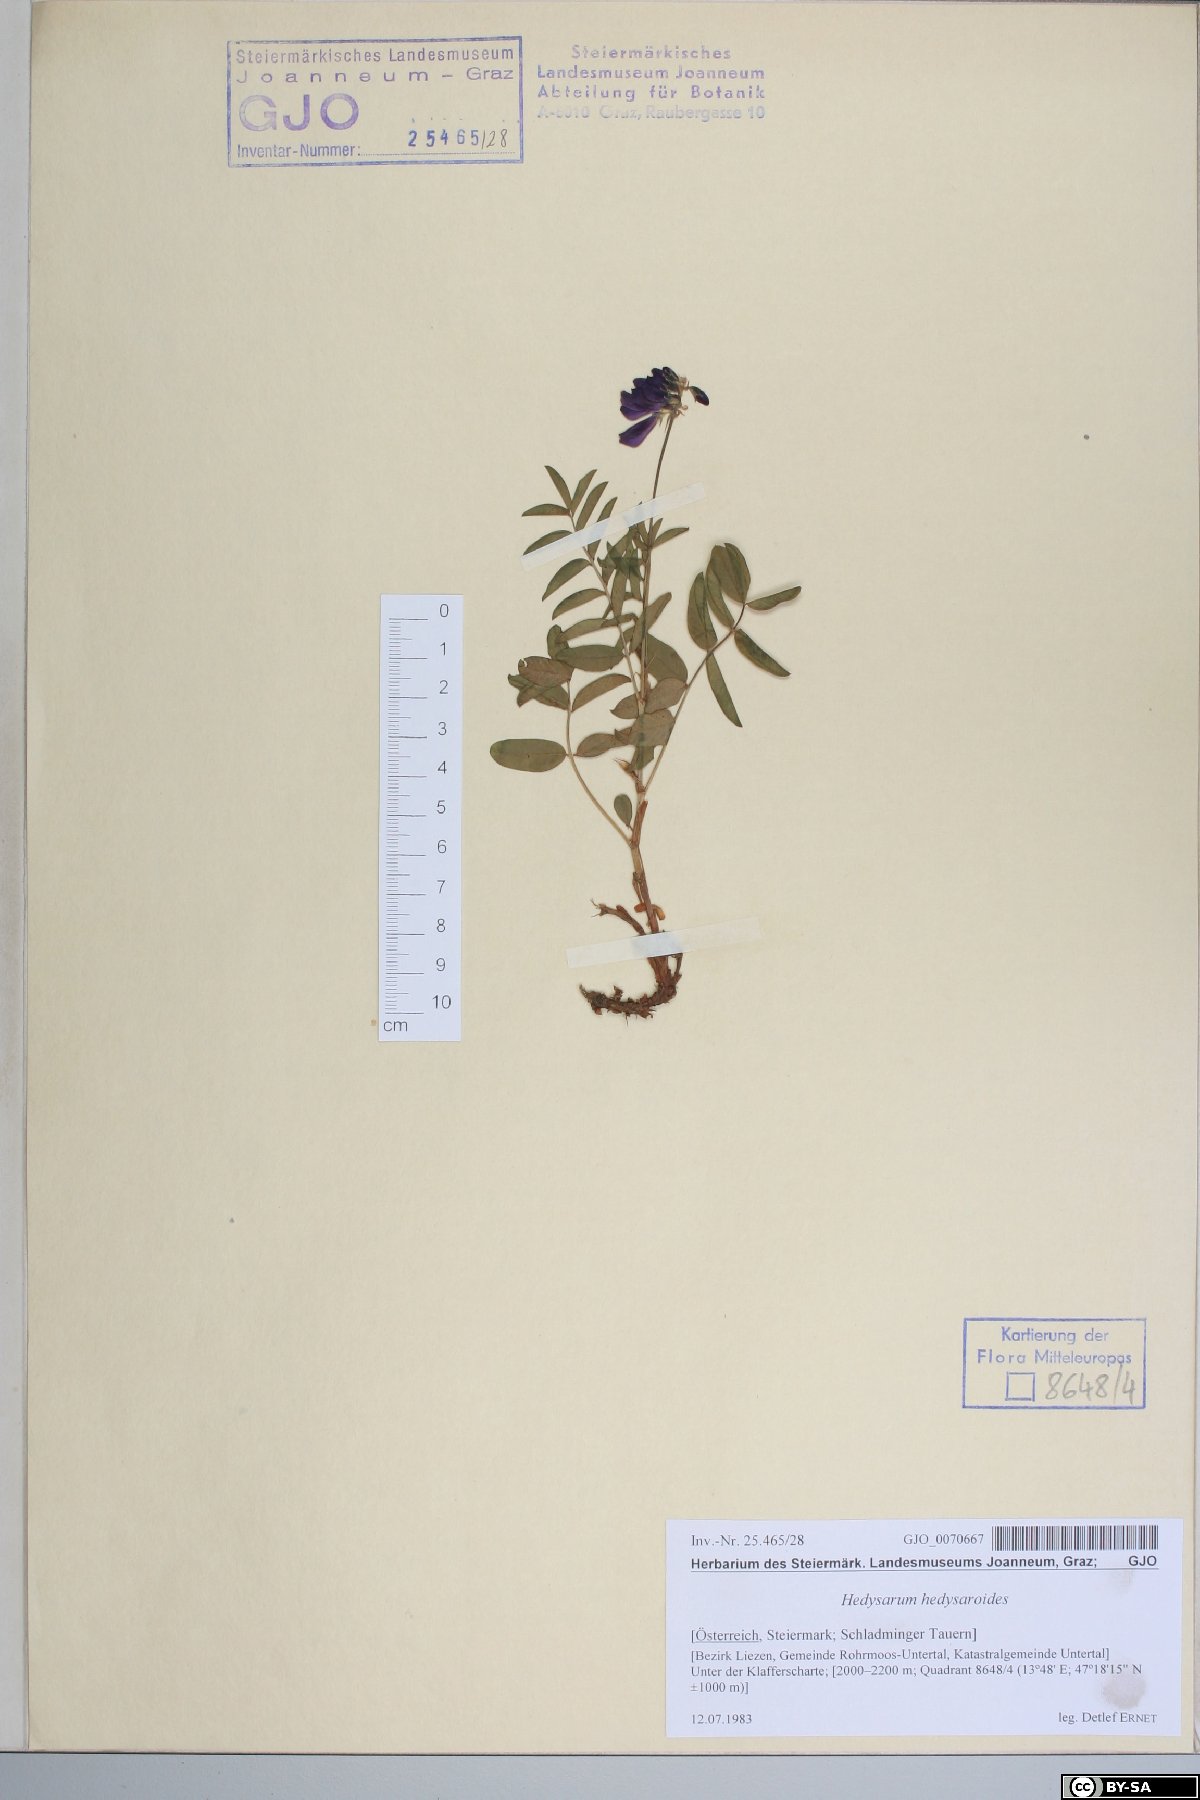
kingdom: Plantae
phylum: Tracheophyta
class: Magnoliopsida
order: Fabales
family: Fabaceae
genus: Hedysarum
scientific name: Hedysarum hedysaroides
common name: Alpine french-honeysuckle
